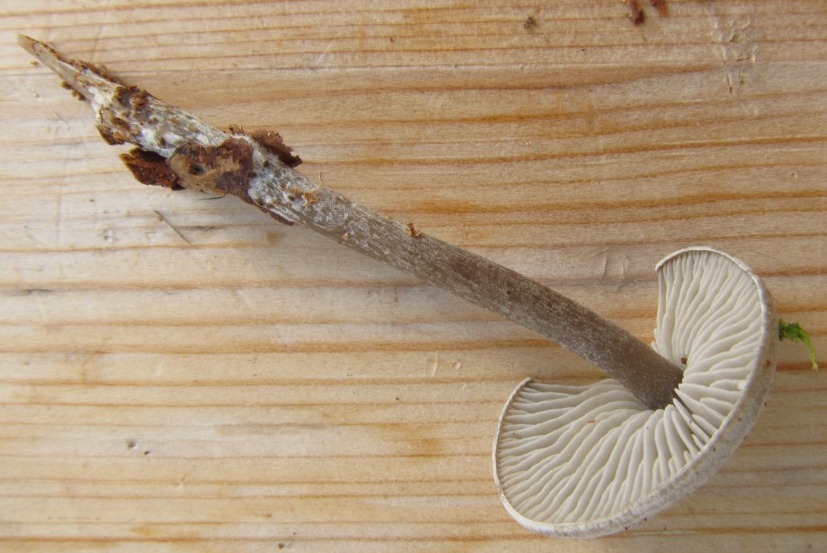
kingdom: Fungi
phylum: Basidiomycota
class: Agaricomycetes
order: Agaricales
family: Lyophyllaceae
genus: Tephrocybe
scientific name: Tephrocybe rancida
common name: mel-gråblad
